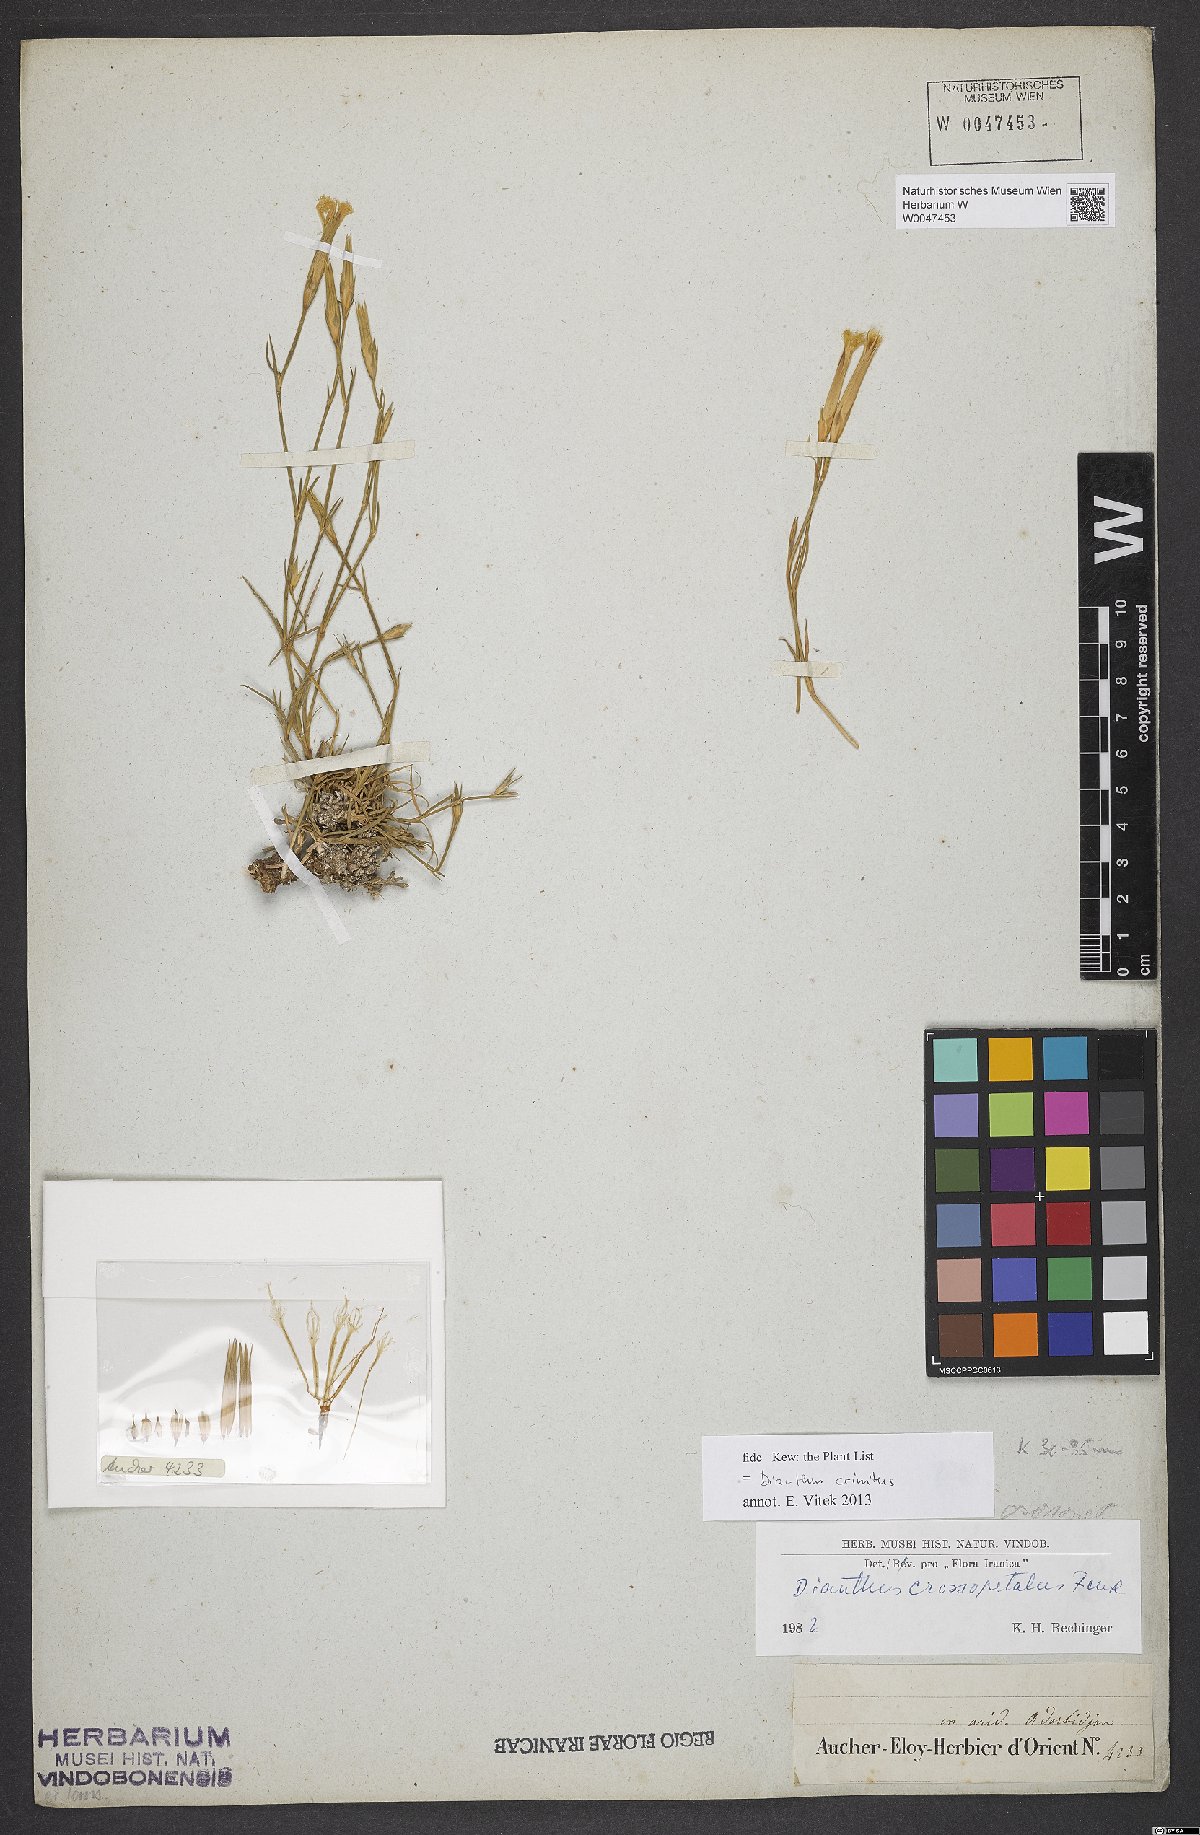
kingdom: Plantae
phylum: Tracheophyta
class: Magnoliopsida
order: Caryophyllales
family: Caryophyllaceae
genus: Dianthus
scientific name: Dianthus crossopetalus
